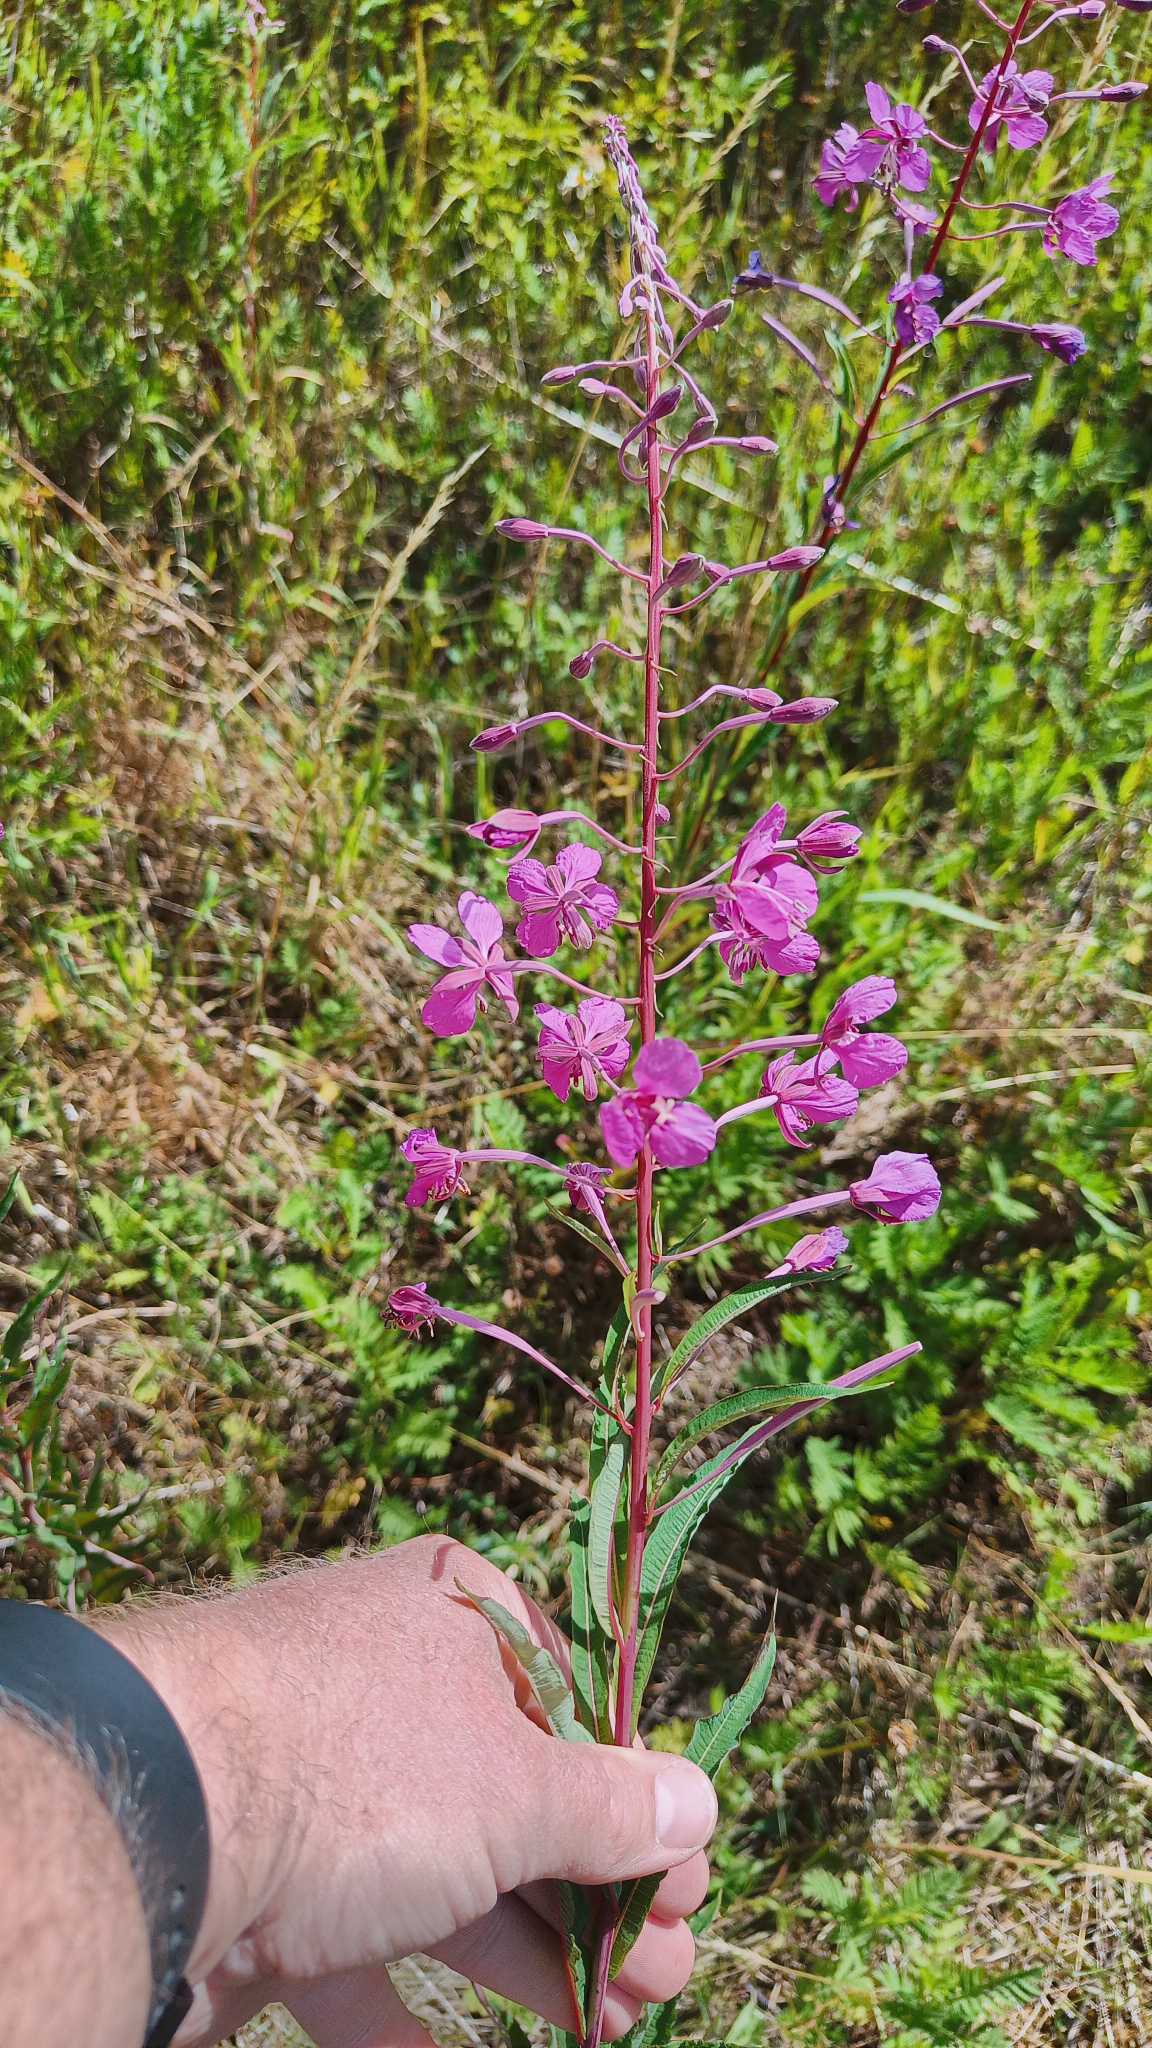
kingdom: Plantae
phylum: Tracheophyta
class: Magnoliopsida
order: Myrtales
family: Onagraceae
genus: Chamaenerion
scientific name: Chamaenerion angustifolium
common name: Gederams
